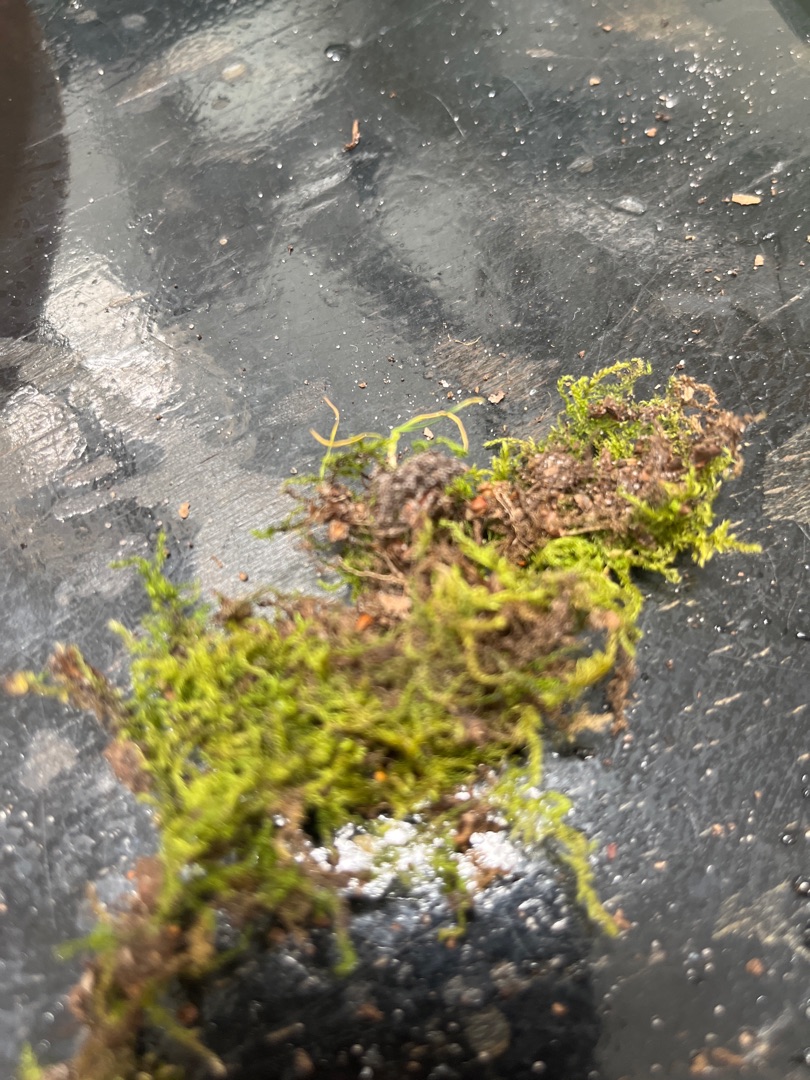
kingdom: Plantae
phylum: Bryophyta
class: Bryopsida
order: Hypnales
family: Brachytheciaceae
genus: Kindbergia
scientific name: Kindbergia praelonga
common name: Forskelligbladet vortetand
